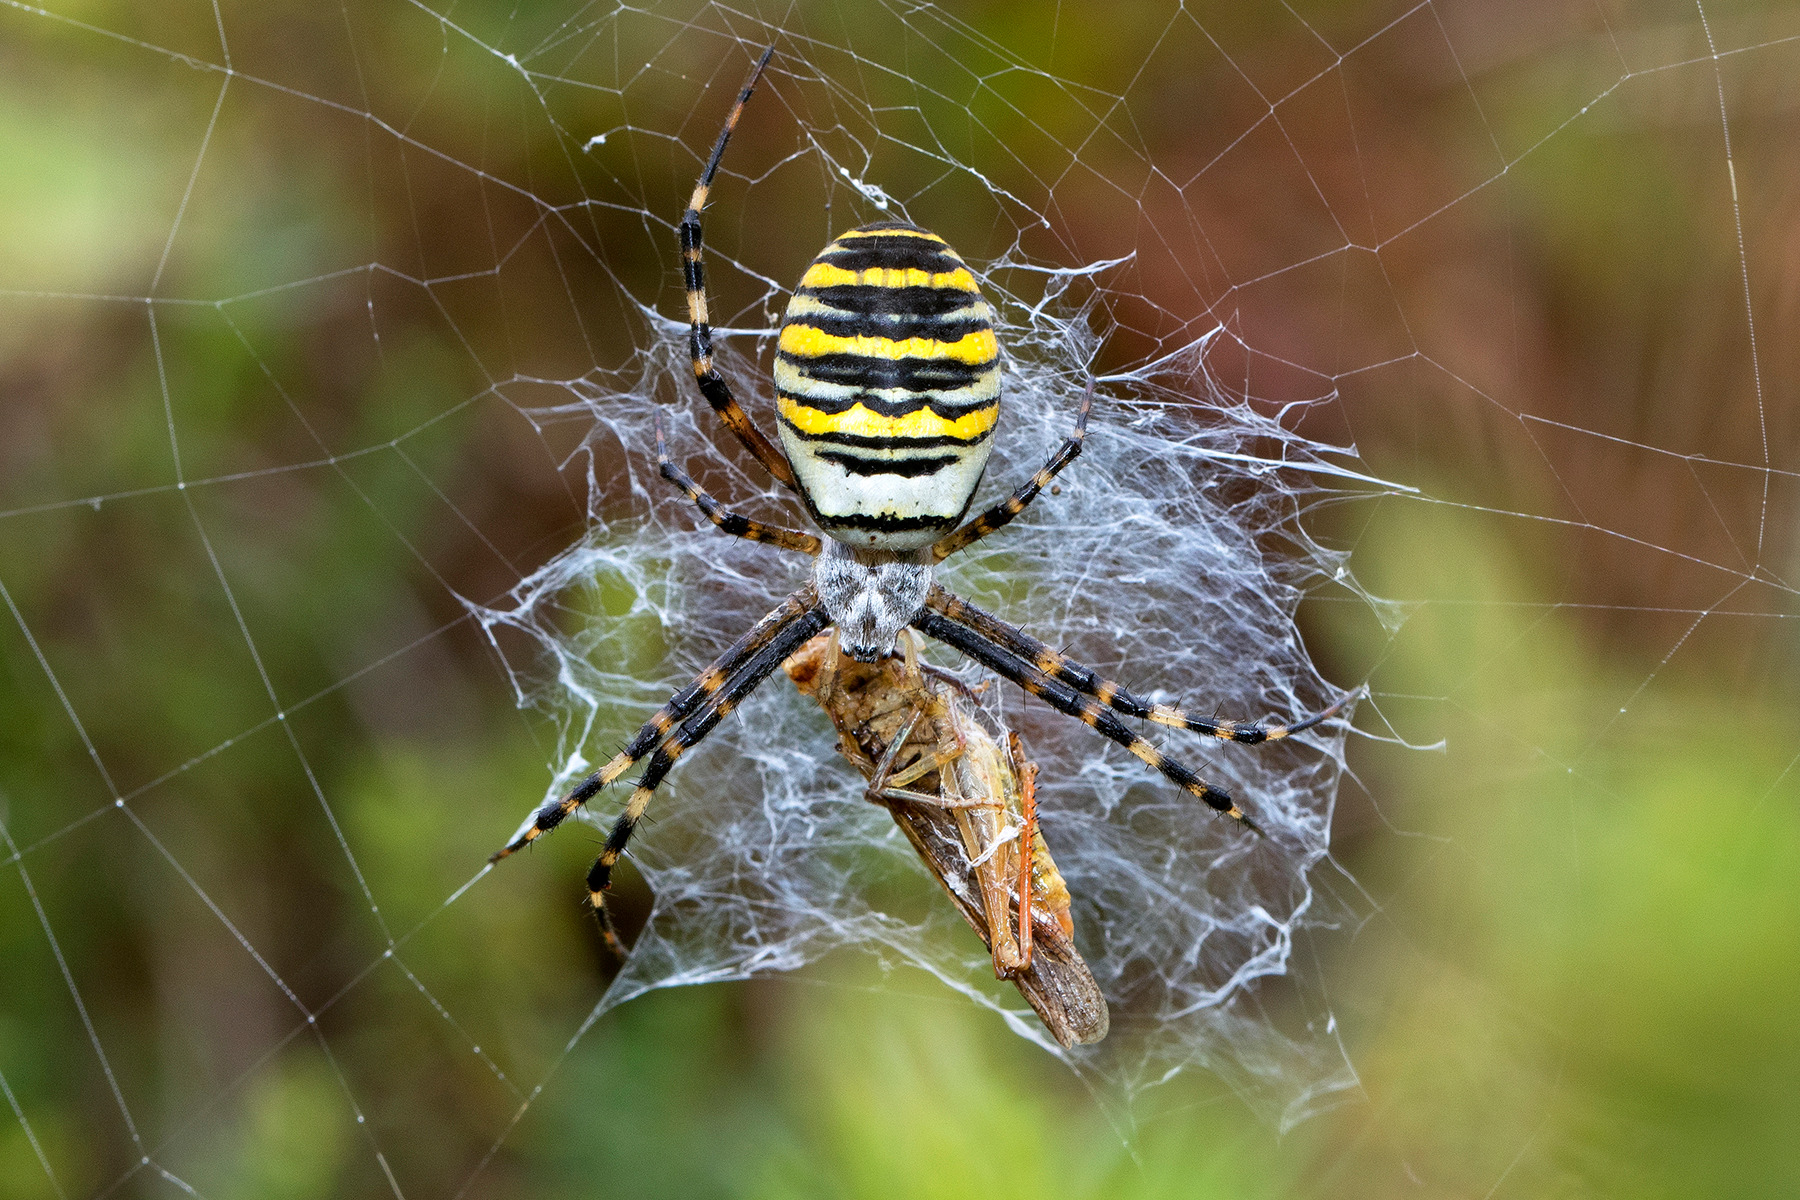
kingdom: Animalia
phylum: Arthropoda
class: Arachnida
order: Araneae
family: Araneidae
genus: Argiope
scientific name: Argiope bruennichi
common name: Hvepseedderkop
